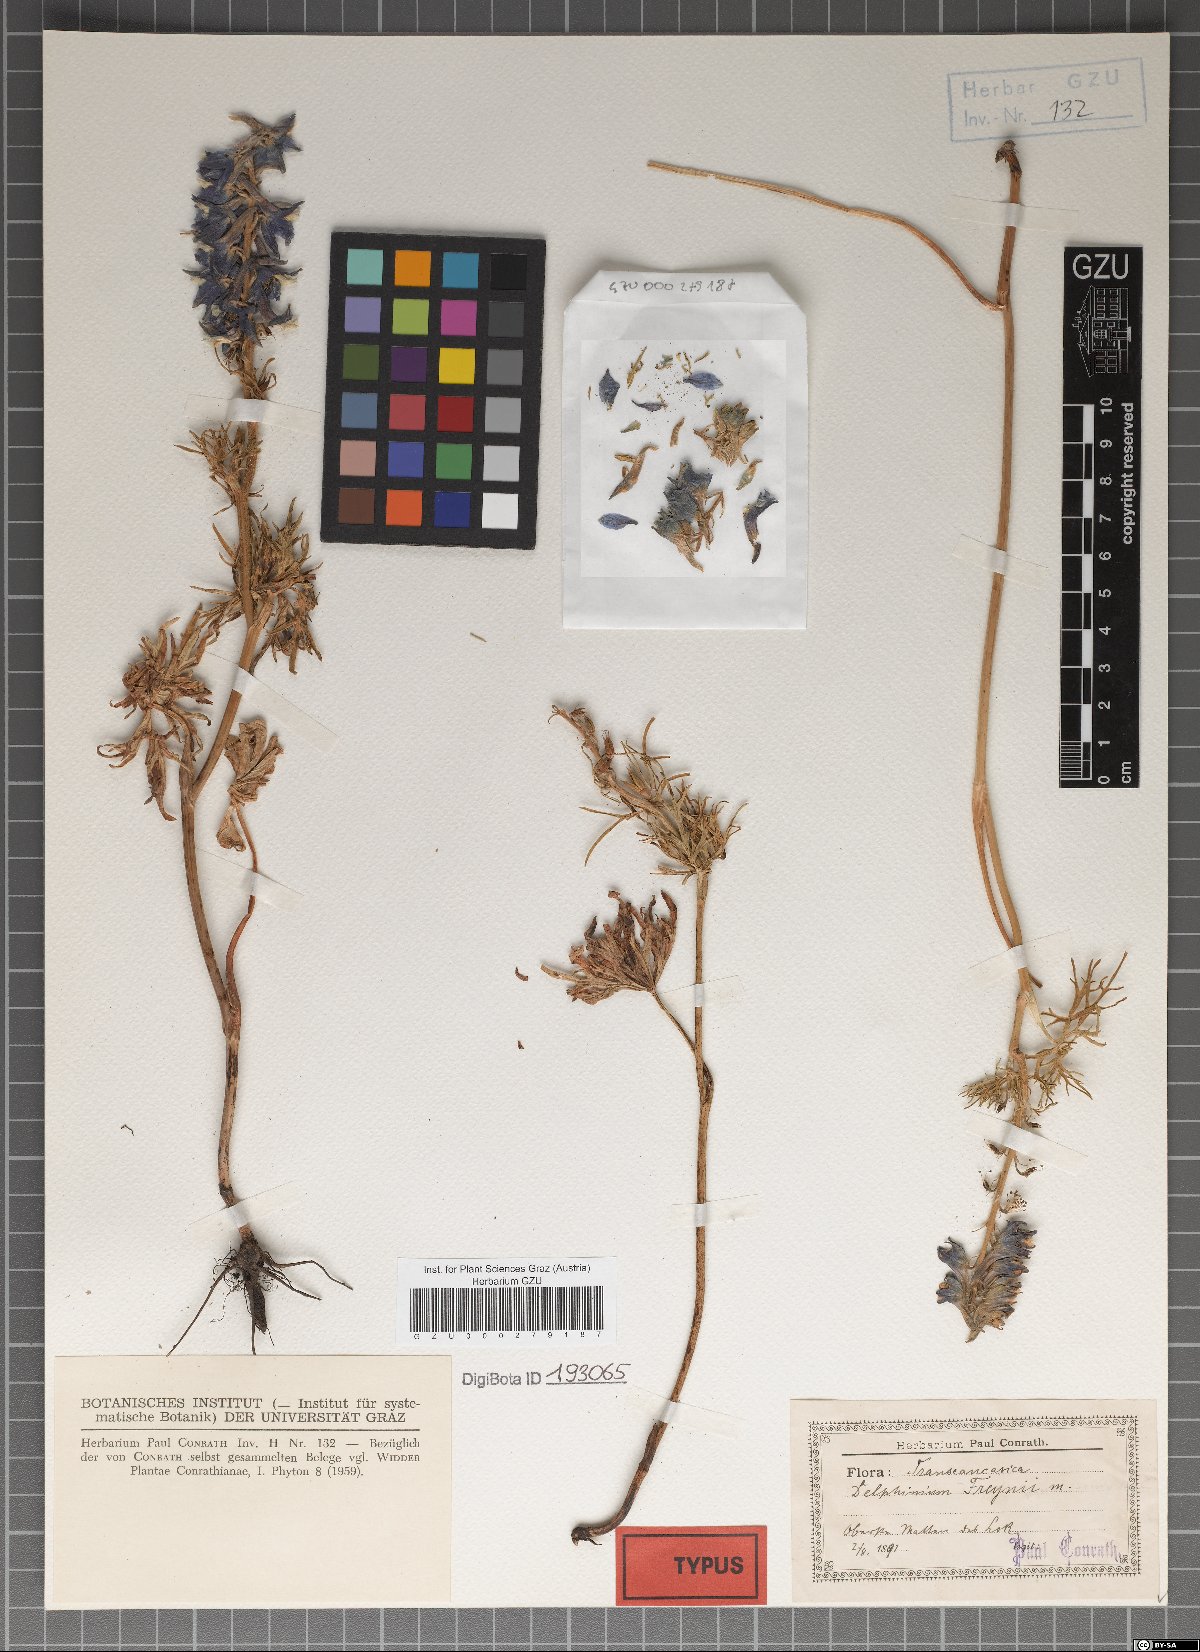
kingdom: Plantae
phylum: Tracheophyta
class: Magnoliopsida
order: Ranunculales
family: Ranunculaceae
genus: Delphinium
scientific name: Delphinium freynii
